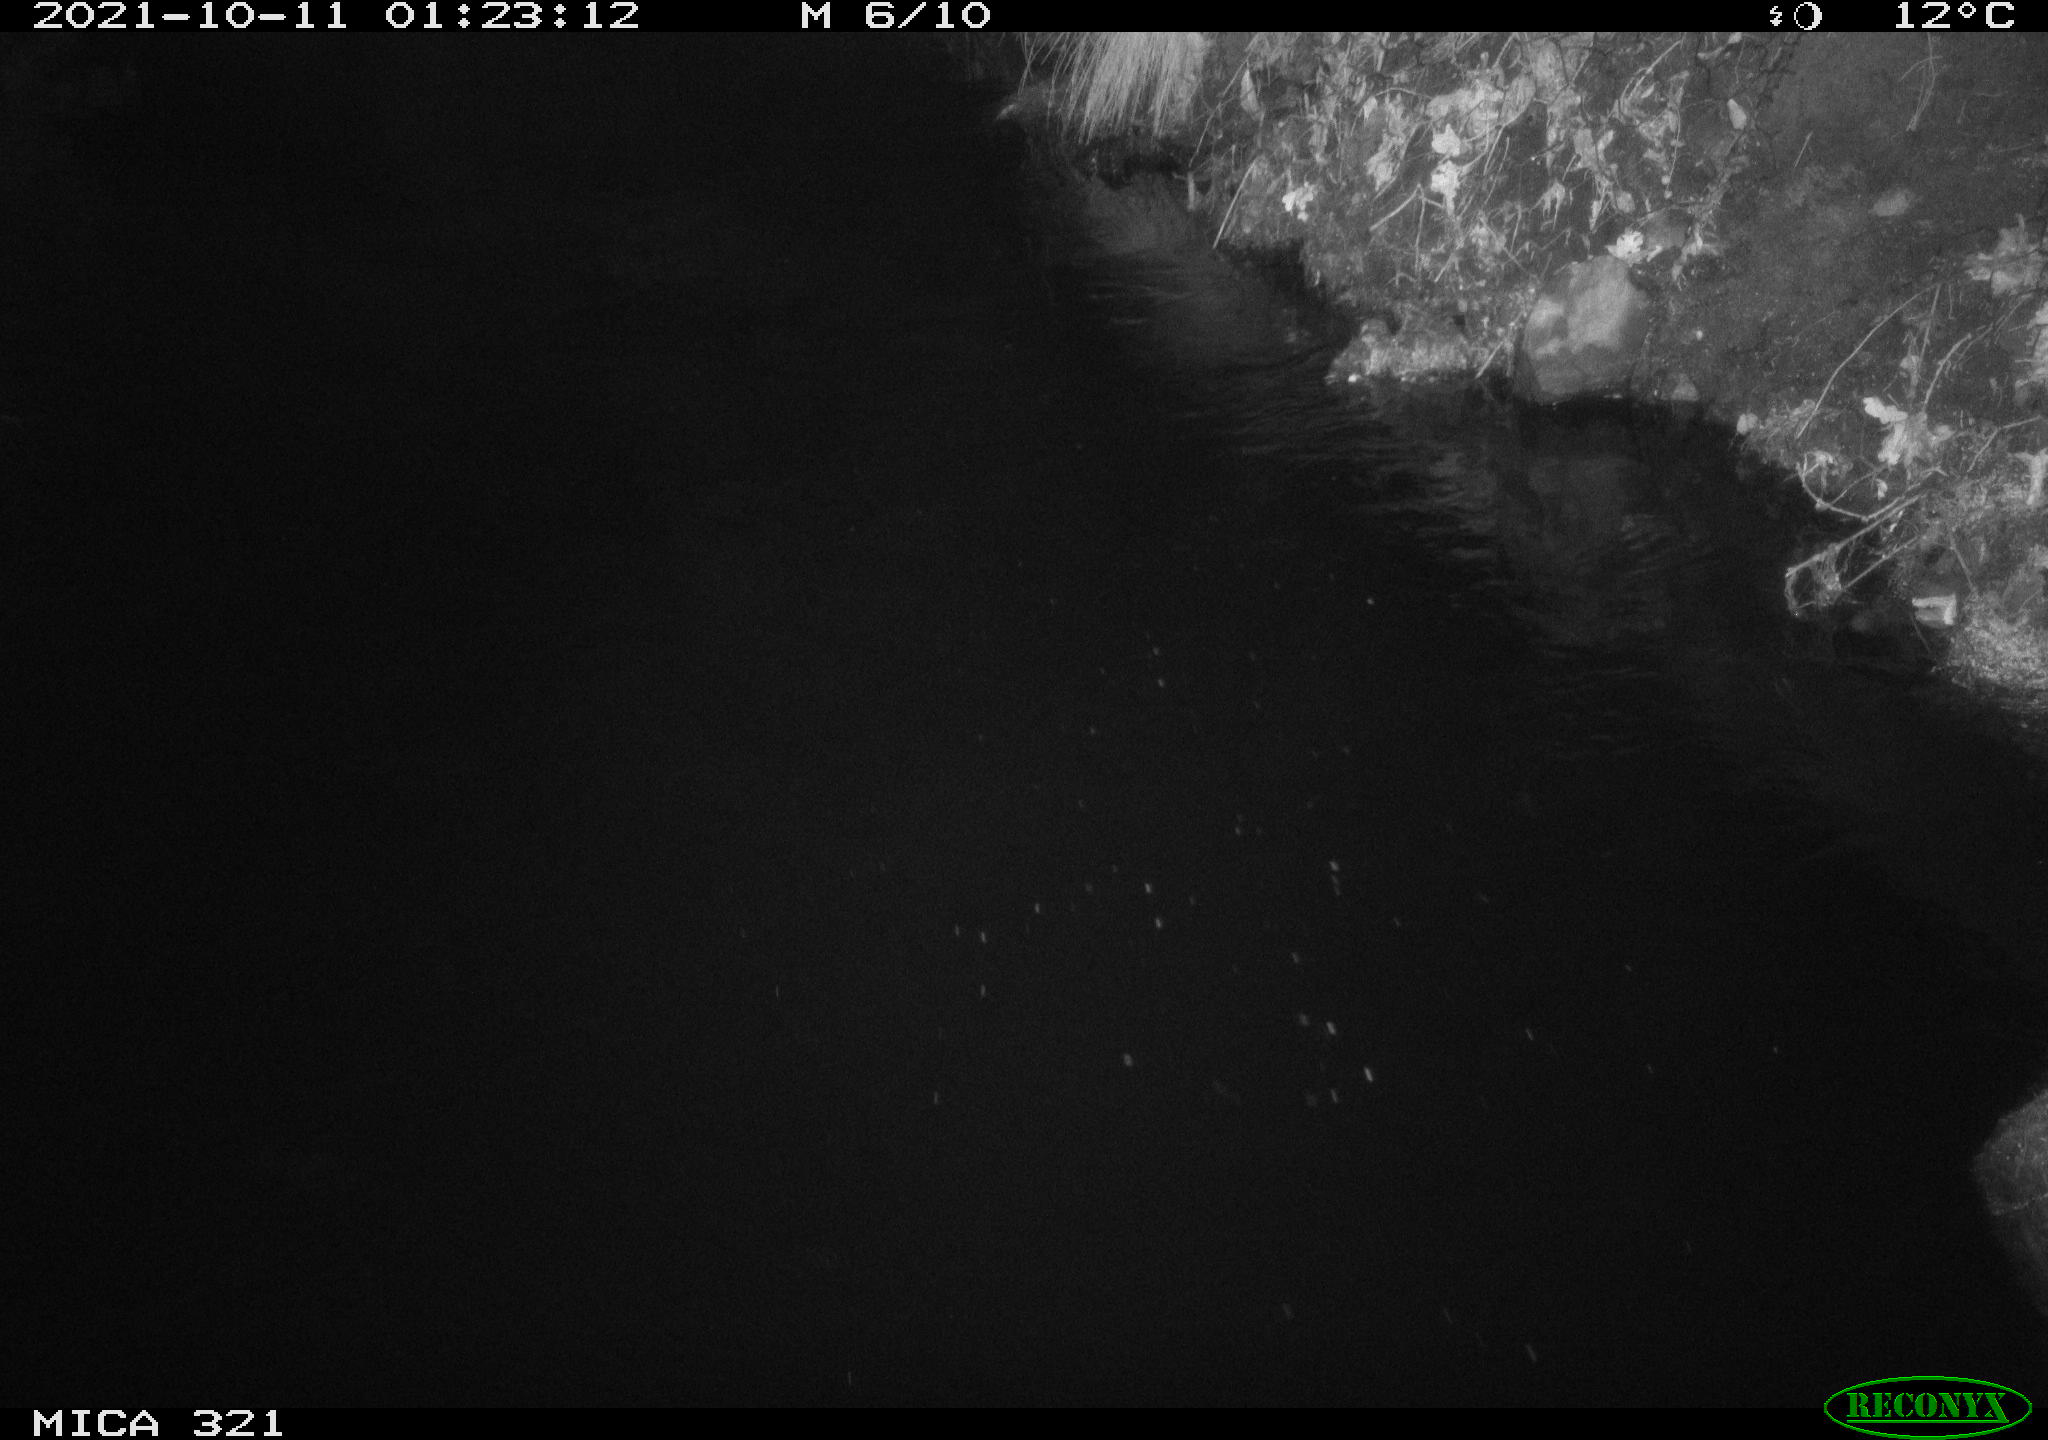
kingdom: Animalia
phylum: Chordata
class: Aves
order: Anseriformes
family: Anatidae
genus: Anas
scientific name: Anas platyrhynchos
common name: Mallard
